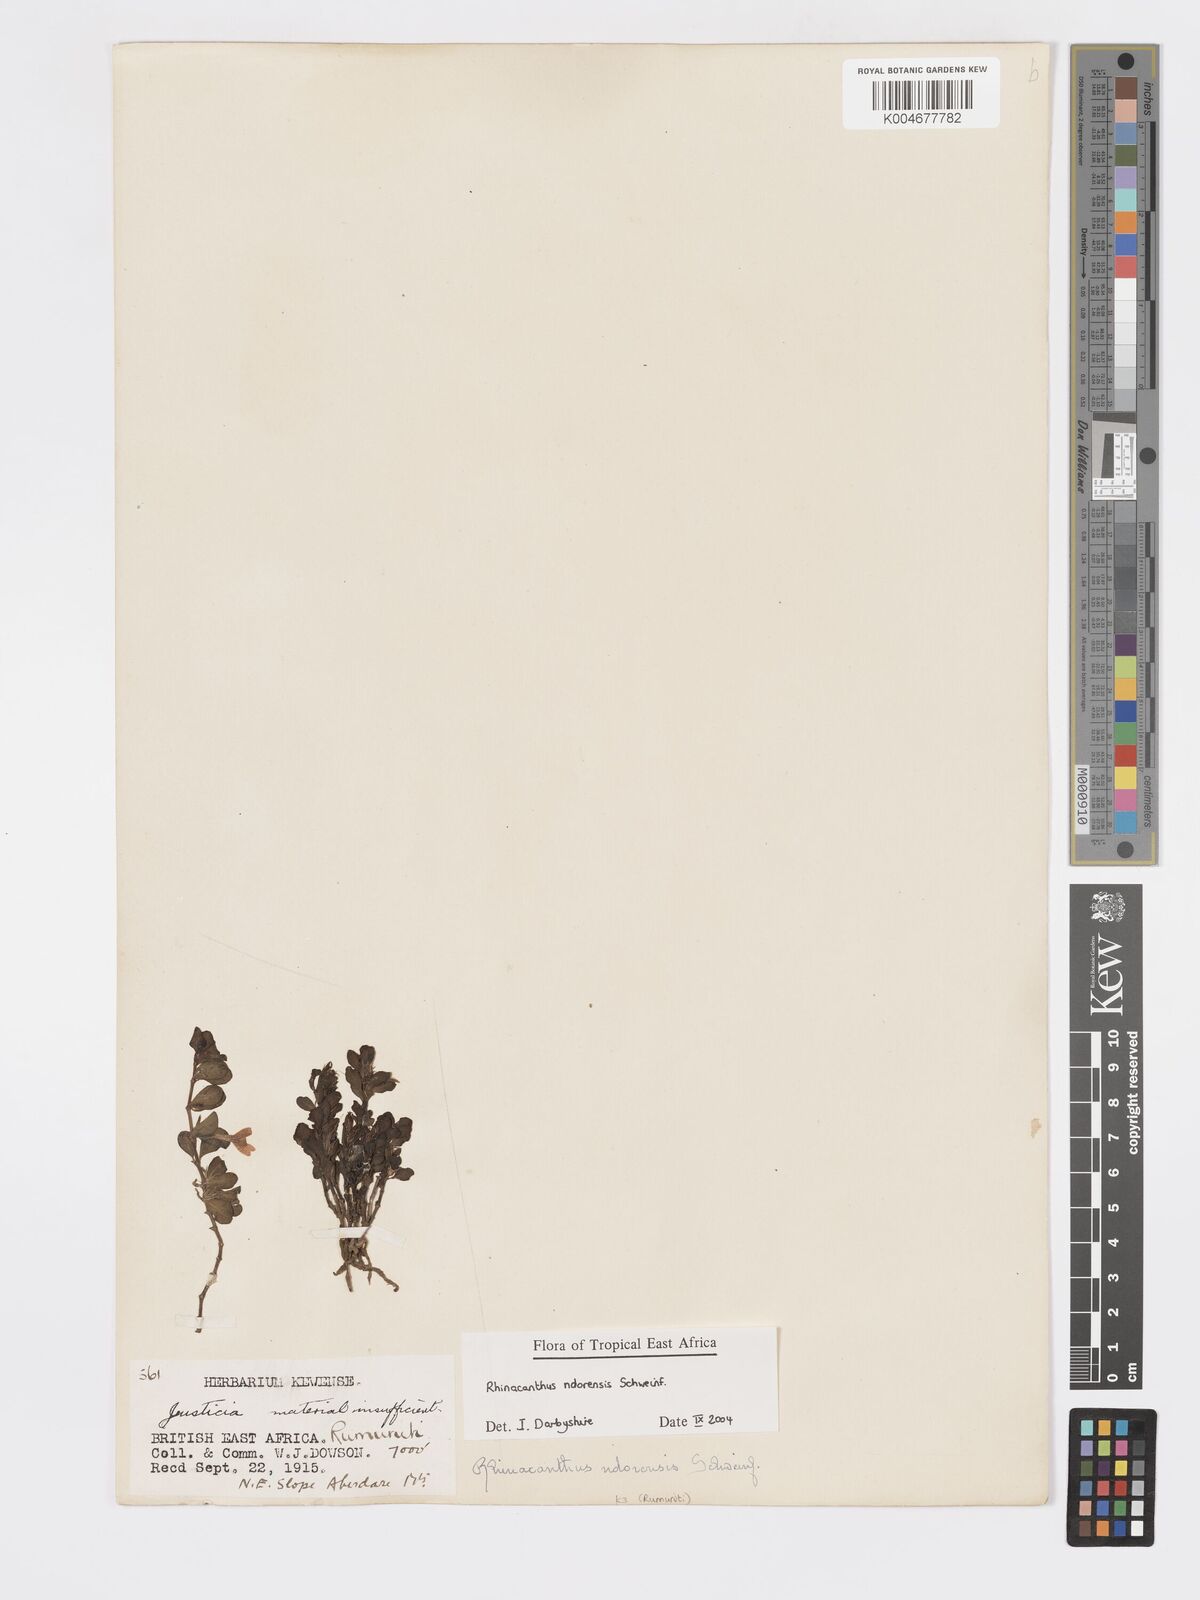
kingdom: Plantae
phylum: Tracheophyta
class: Magnoliopsida
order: Lamiales
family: Acanthaceae
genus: Kenyacanthus
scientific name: Kenyacanthus ndorensis
